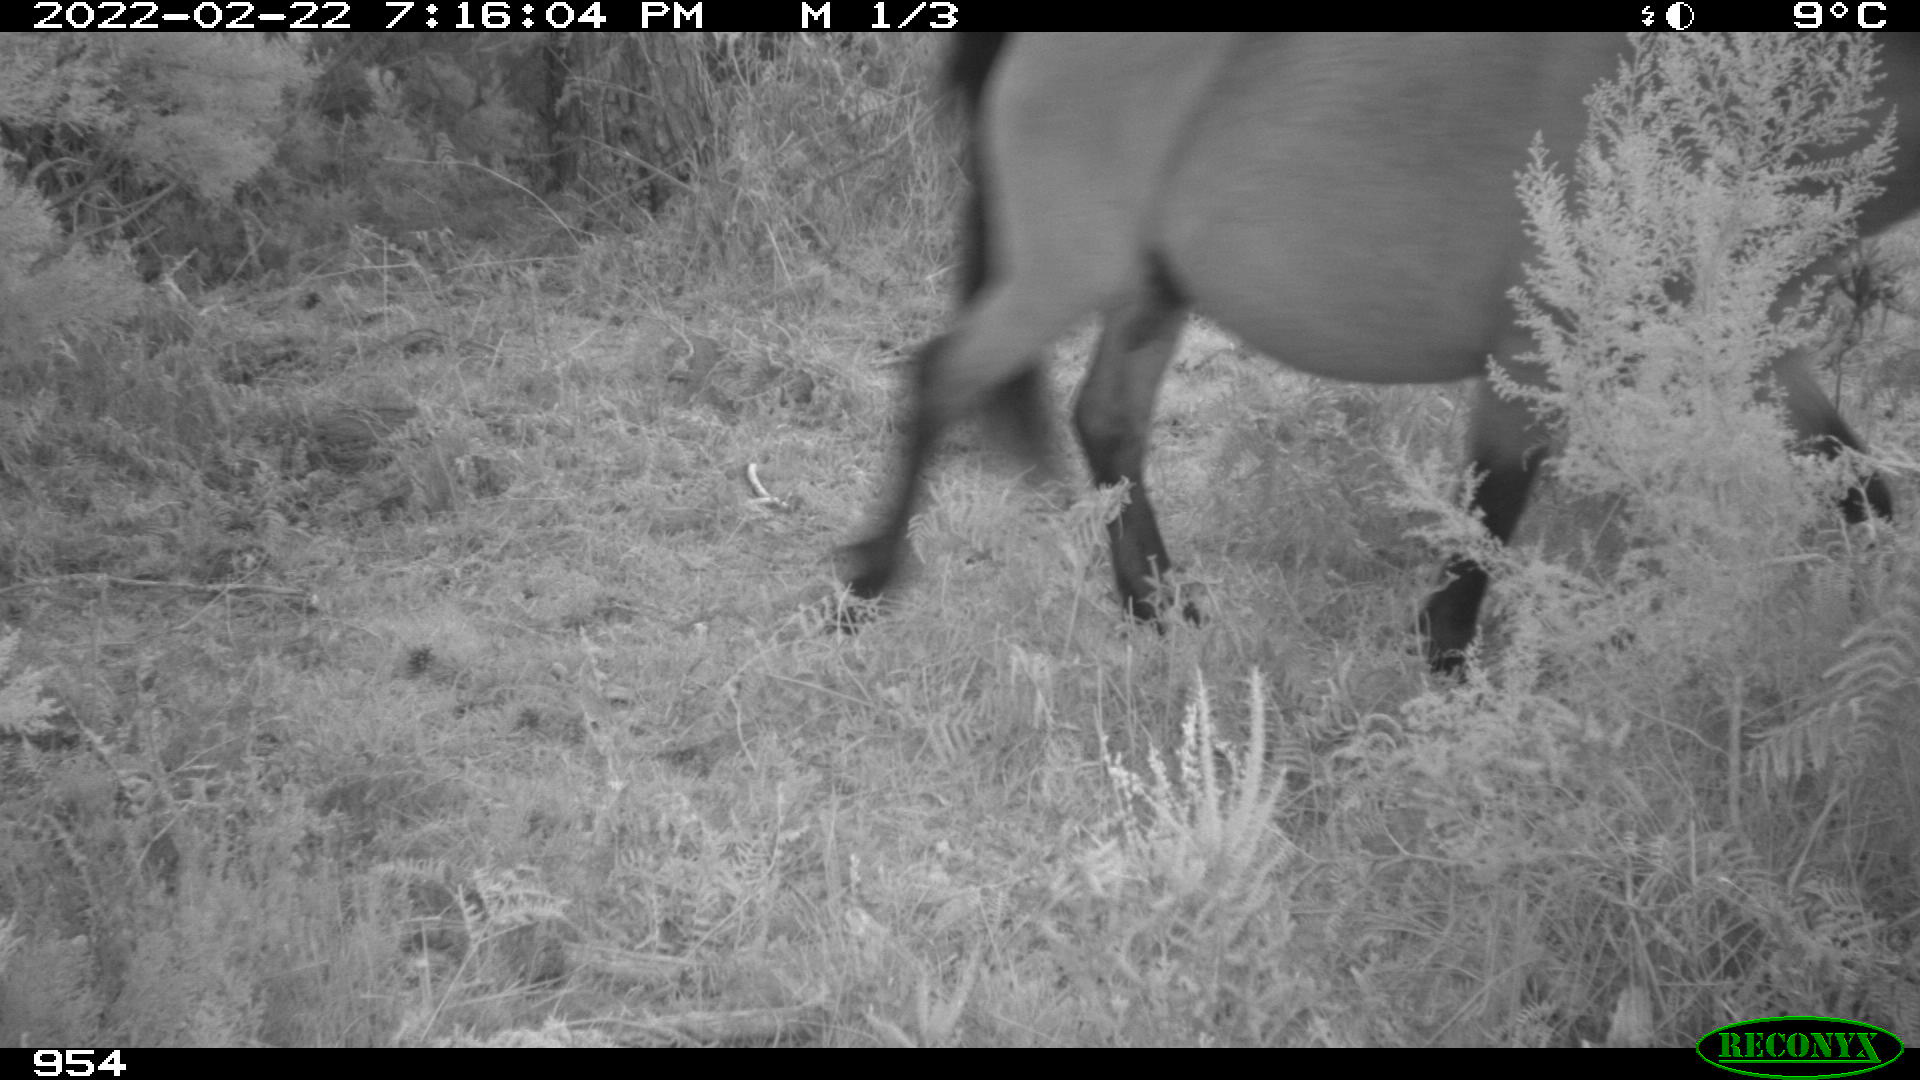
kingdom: Animalia
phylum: Chordata
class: Mammalia
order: Perissodactyla
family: Equidae
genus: Equus
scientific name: Equus caballus
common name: Horse
